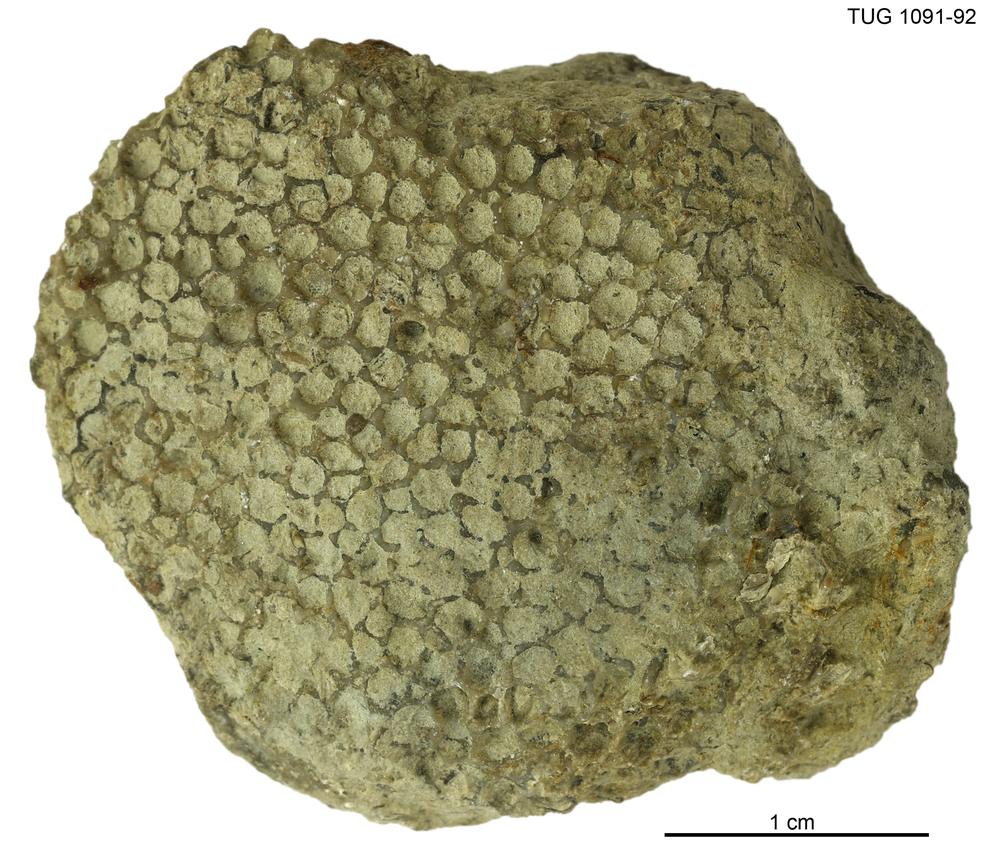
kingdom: Animalia
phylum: Cnidaria
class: Anthozoa
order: Heliolitina
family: Heliolitidae
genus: Heliolites
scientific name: Heliolites
